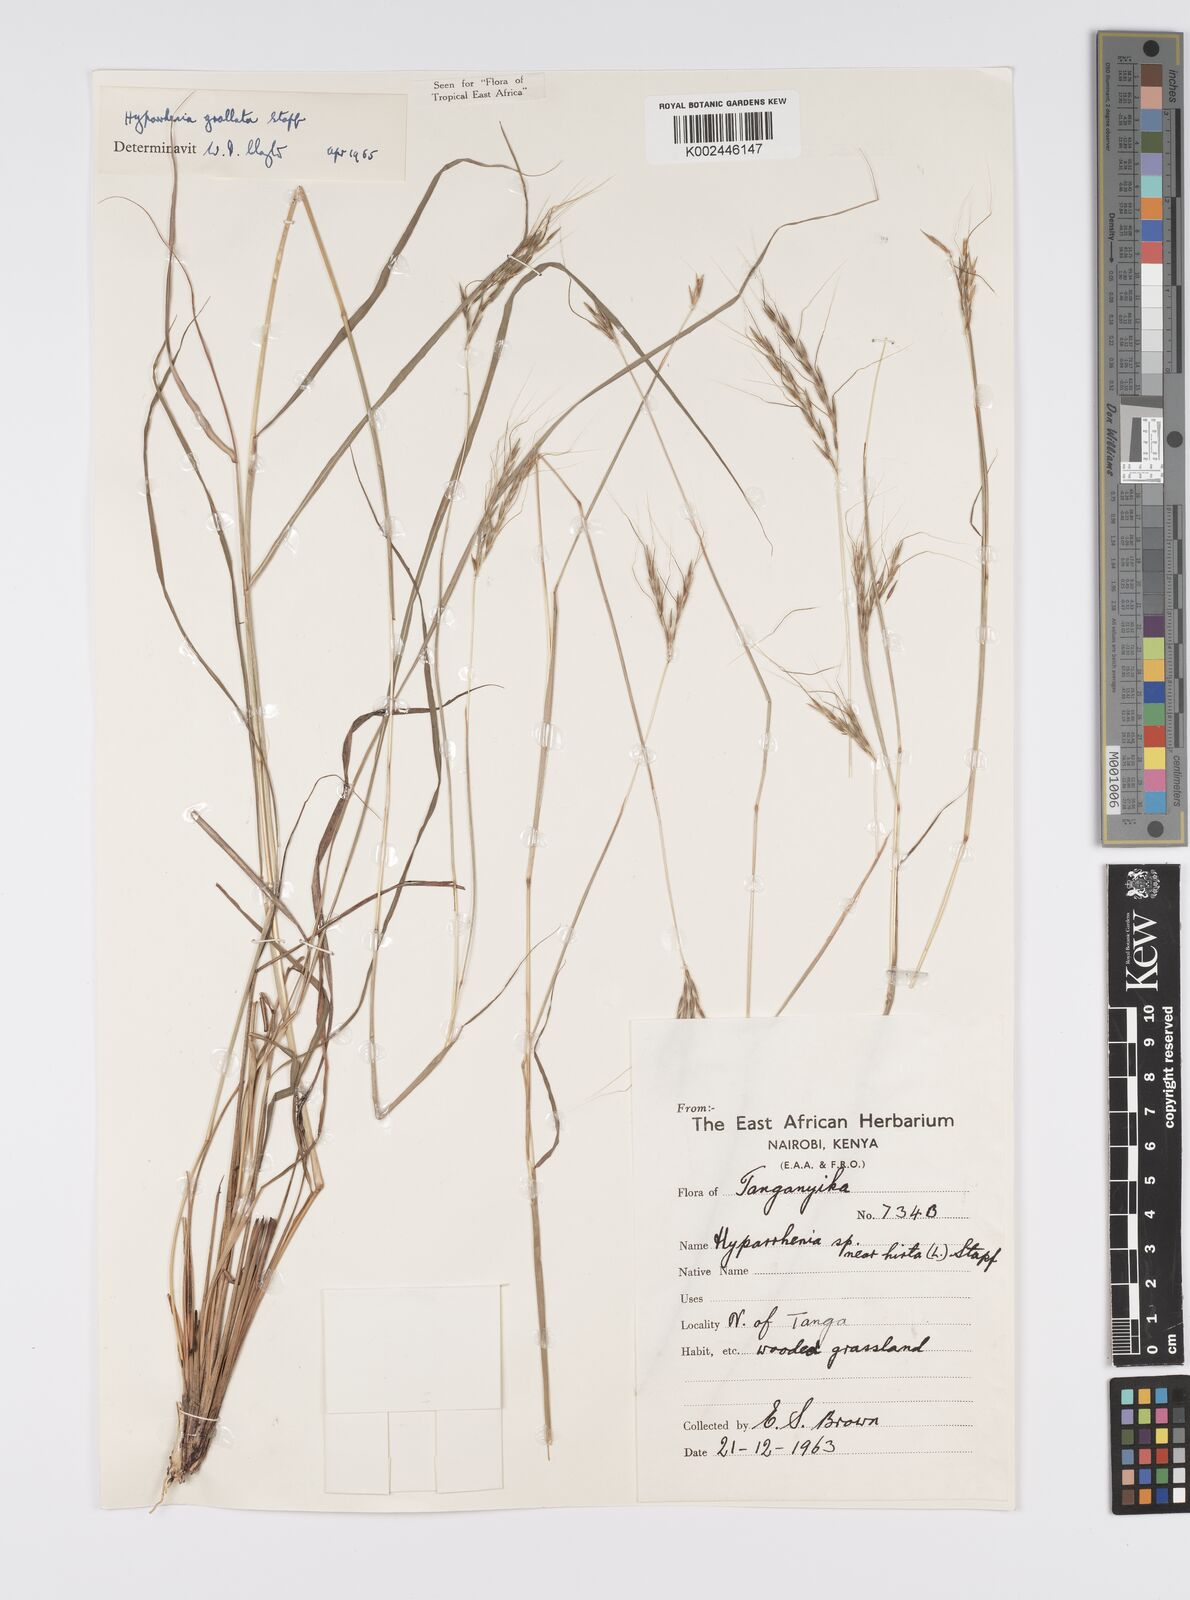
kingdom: Plantae
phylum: Tracheophyta
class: Liliopsida
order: Poales
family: Poaceae
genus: Elymandra
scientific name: Elymandra grallata
